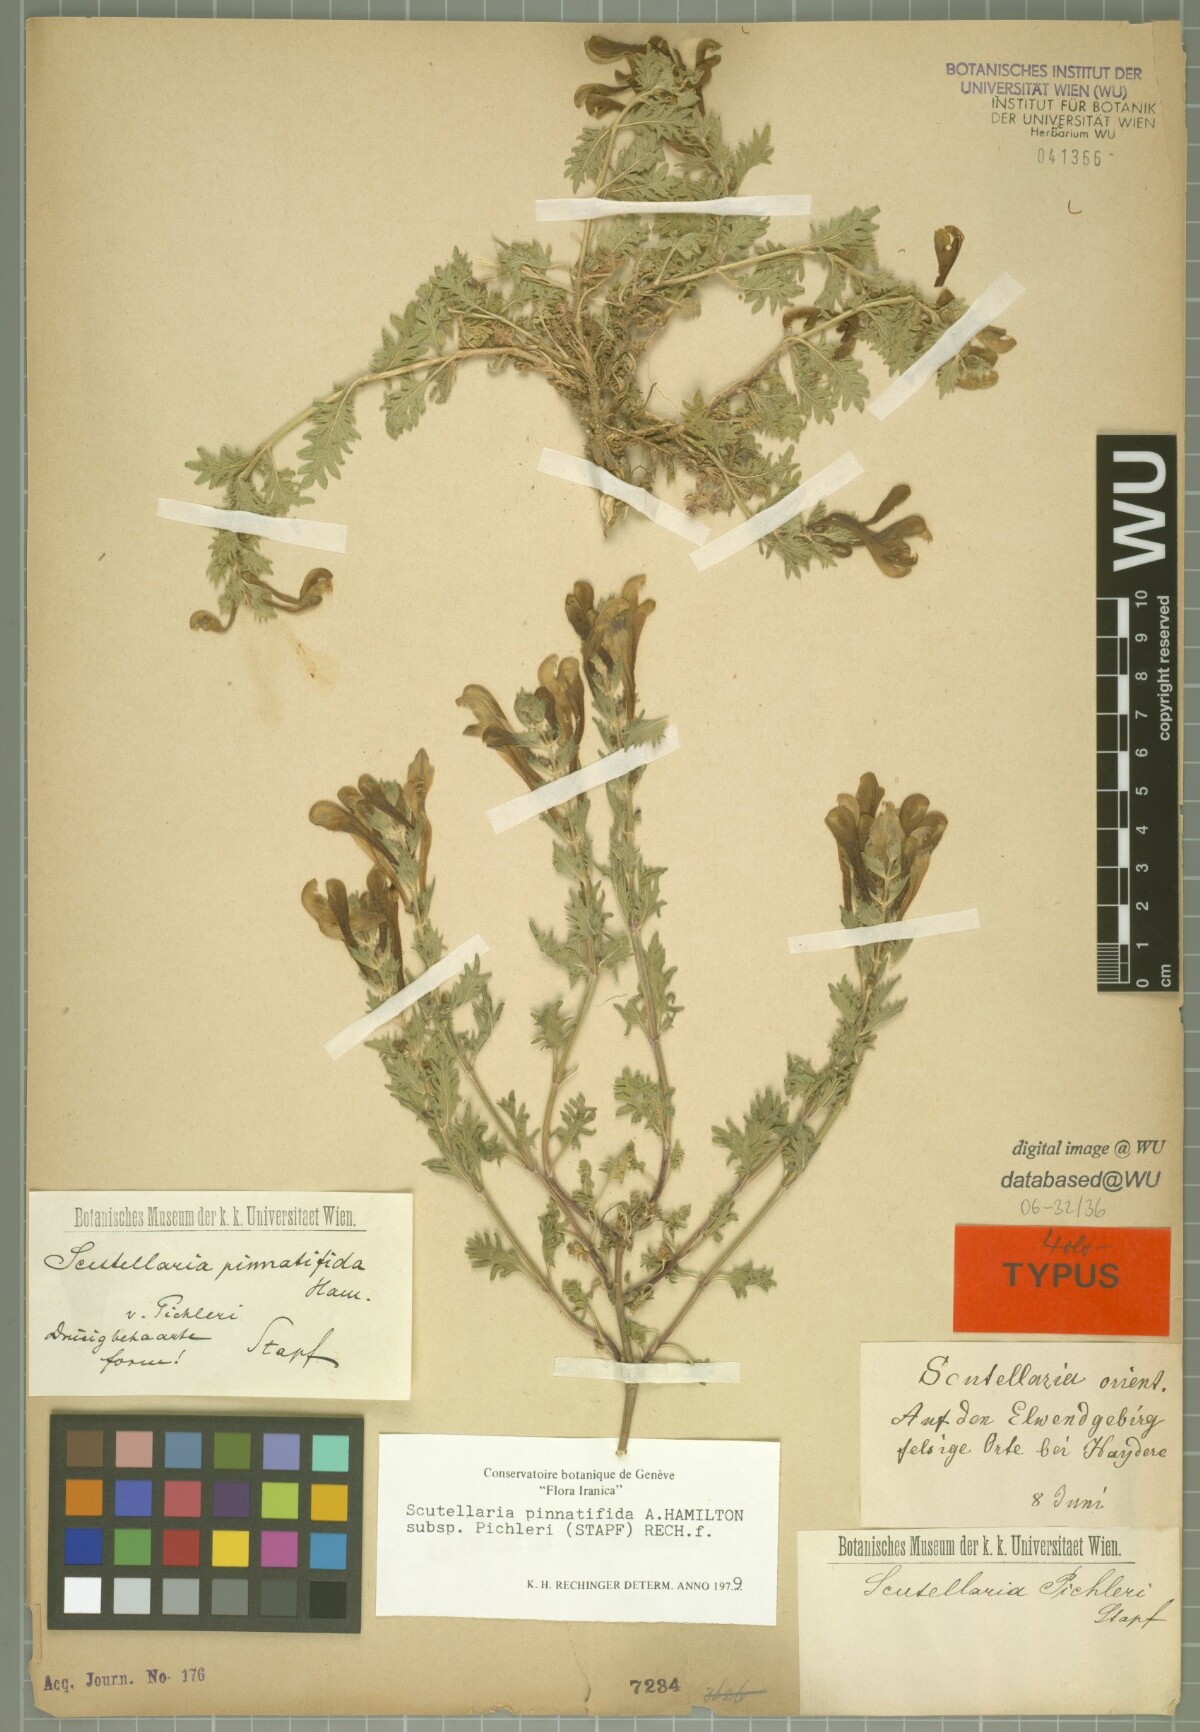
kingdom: Plantae
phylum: Tracheophyta
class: Magnoliopsida
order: Lamiales
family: Lamiaceae
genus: Scutellaria
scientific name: Scutellaria pinnatifida
